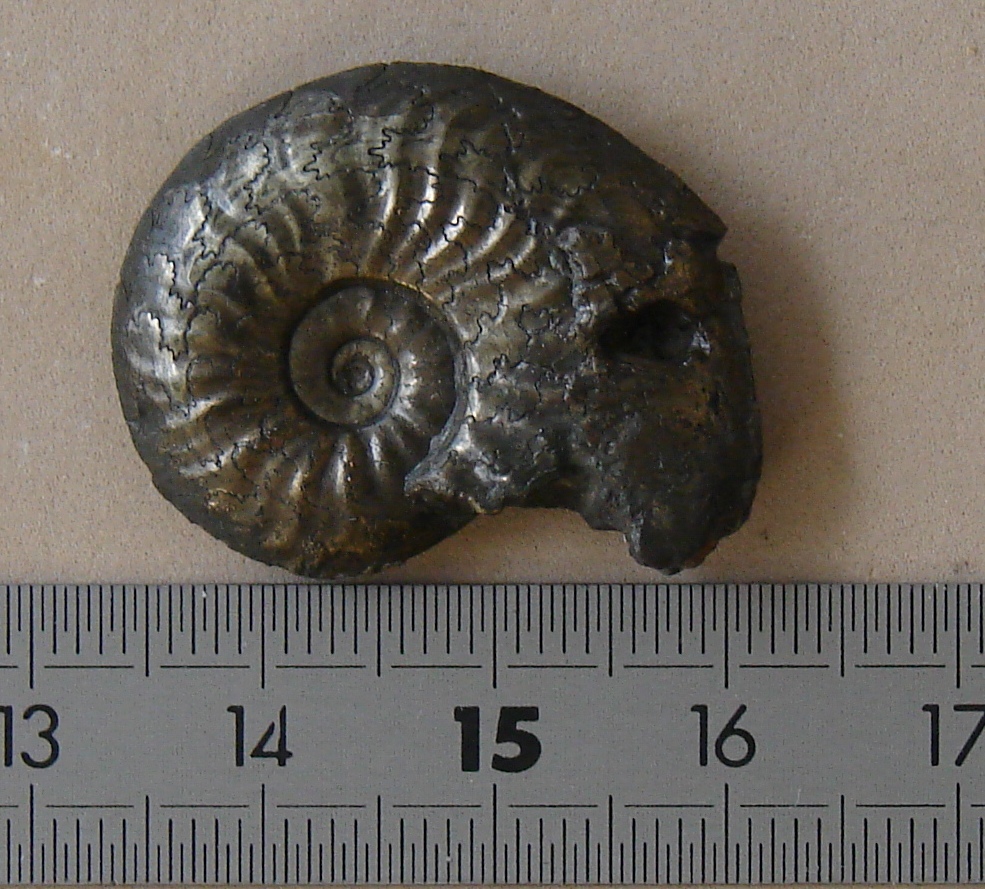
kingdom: Animalia
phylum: Mollusca
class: Cephalopoda
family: Hildoceratidae
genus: Pleydellia
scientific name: Pleydellia aalensis
